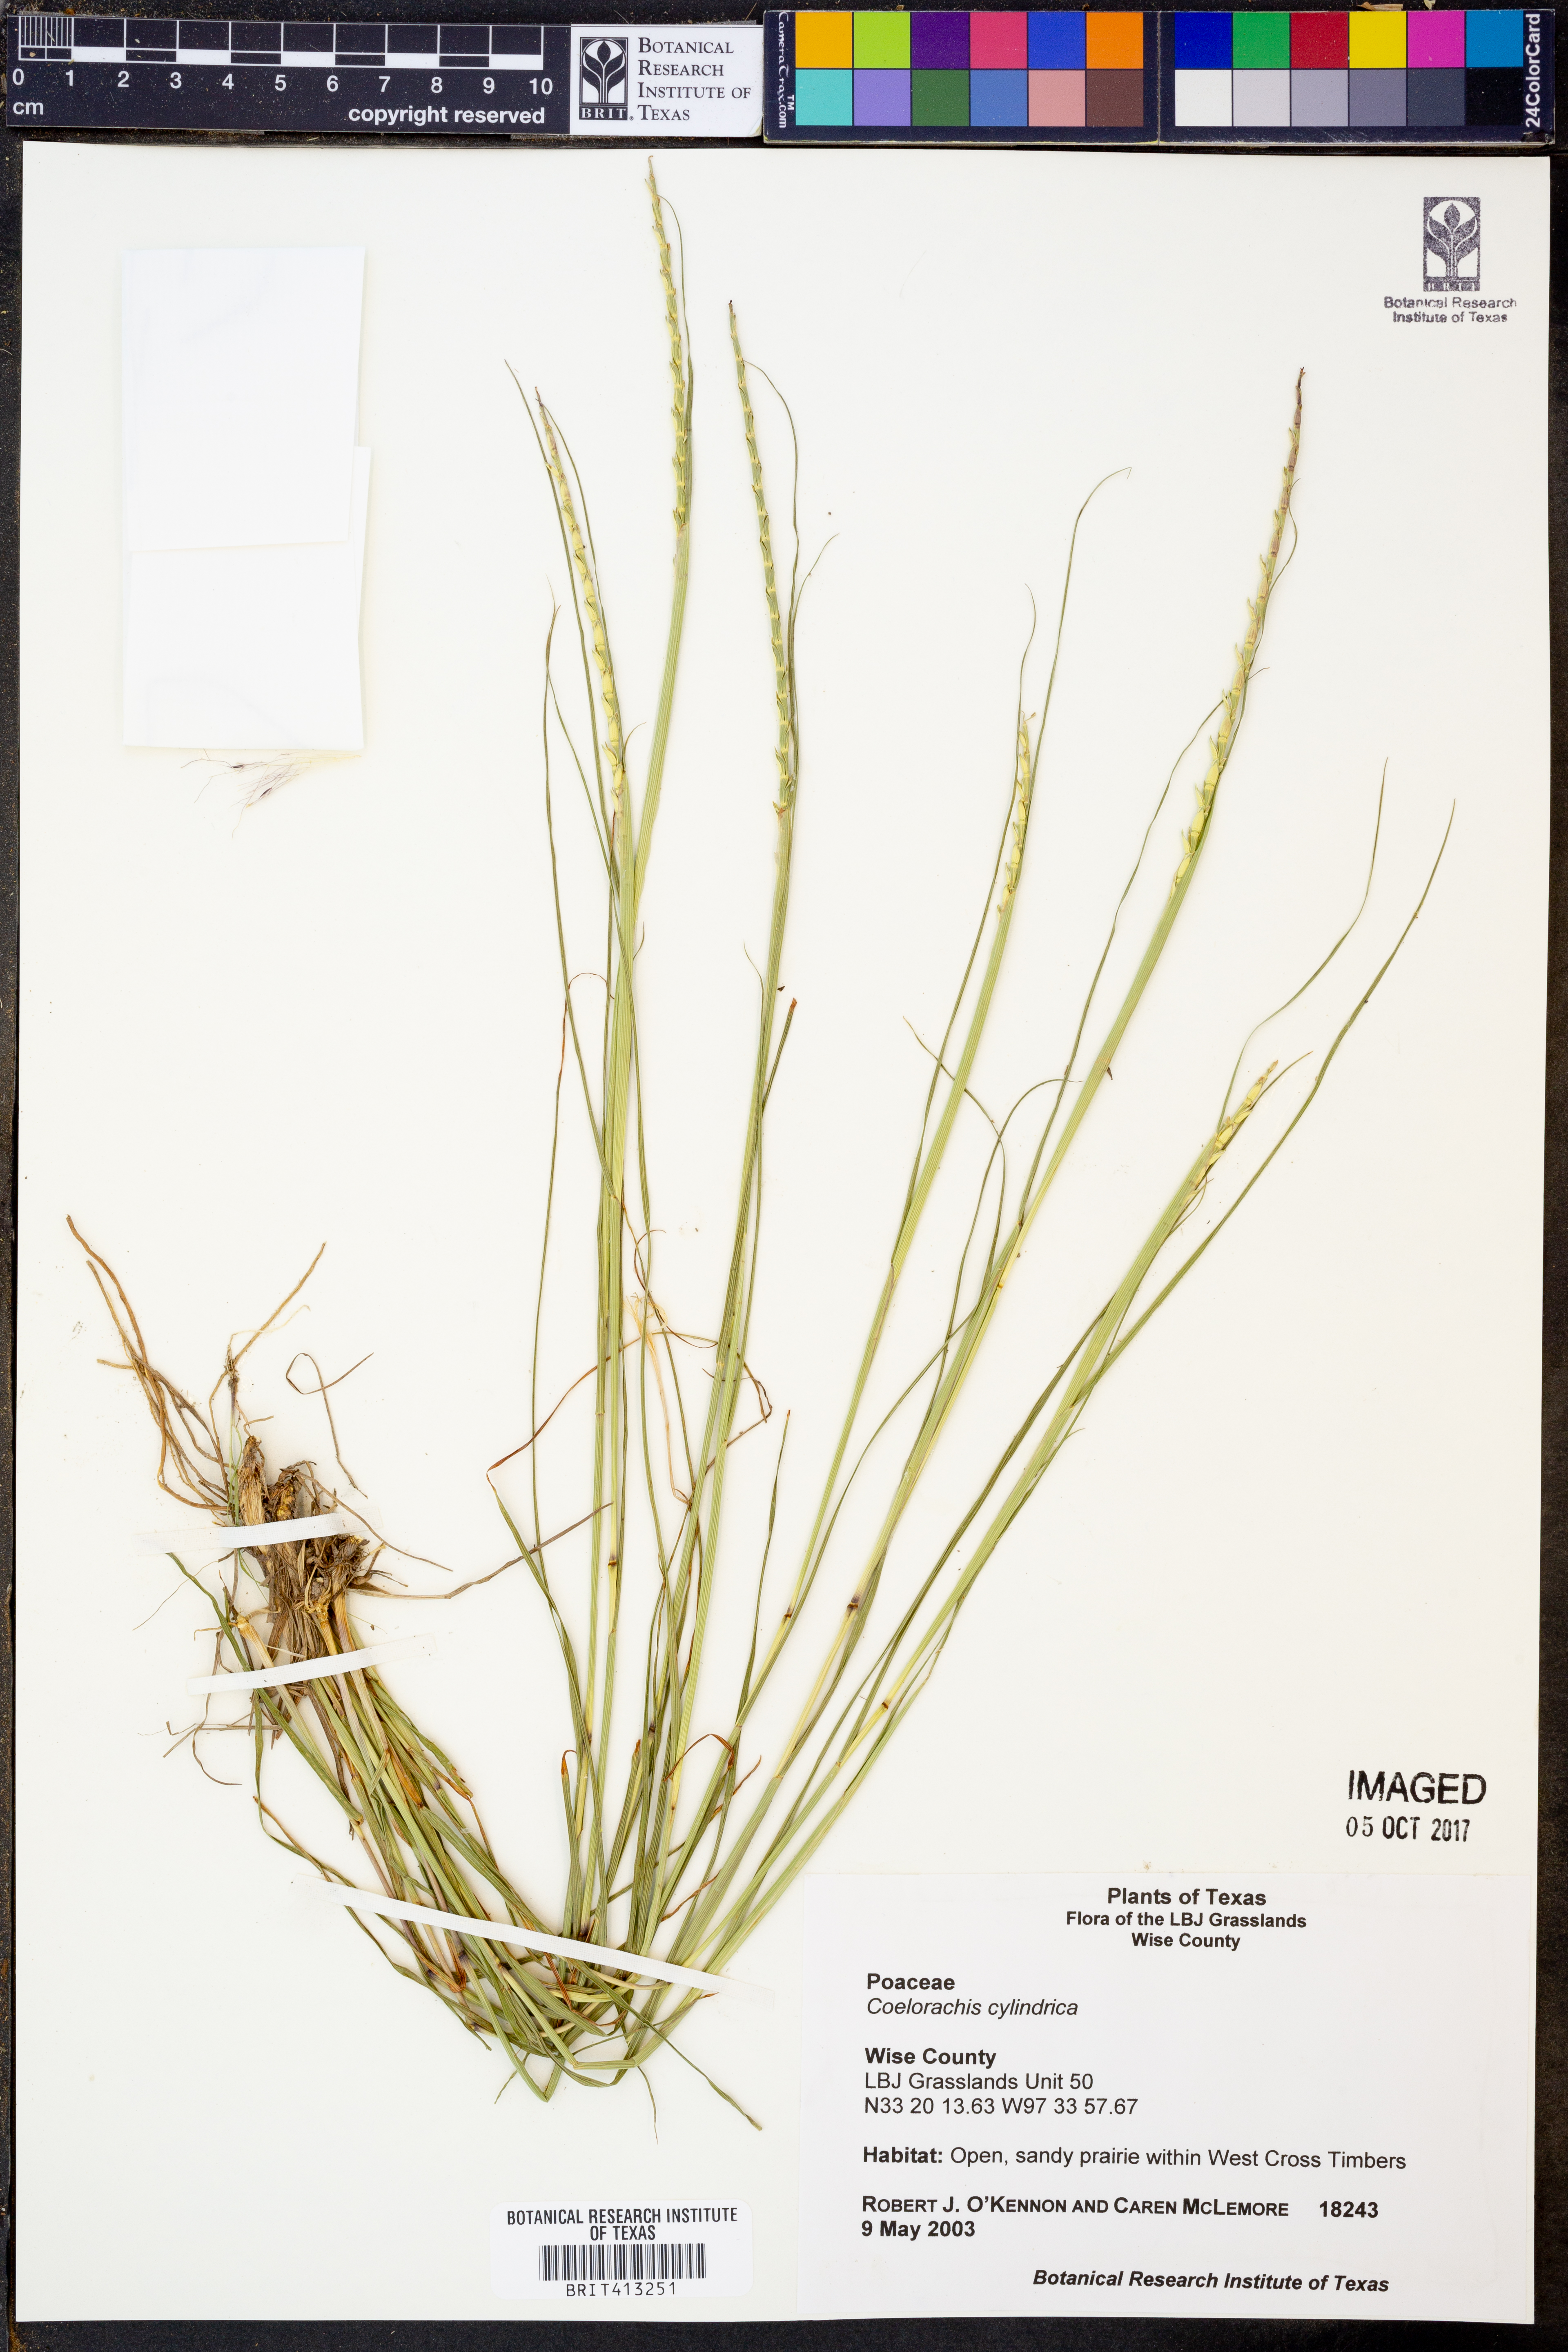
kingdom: Plantae
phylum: Tracheophyta
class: Liliopsida
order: Poales
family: Poaceae
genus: Rottboellia
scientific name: Rottboellia campestris
